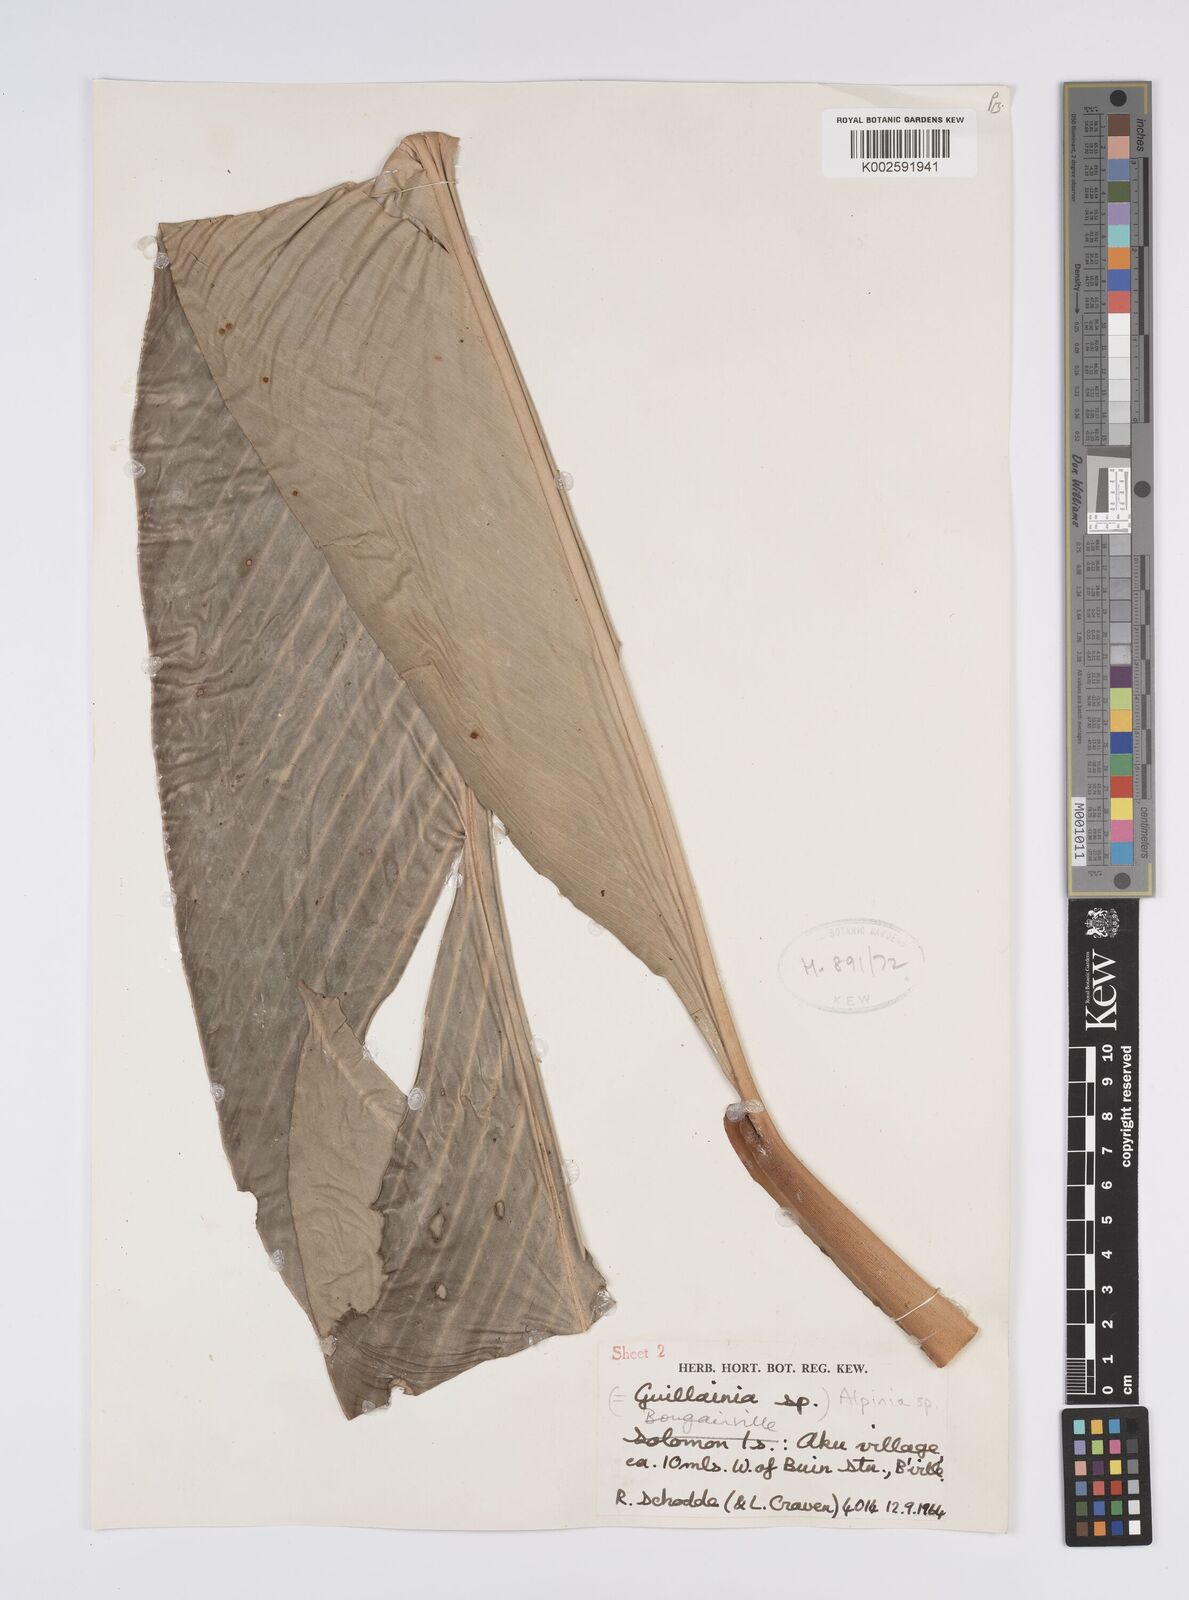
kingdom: Plantae
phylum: Tracheophyta
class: Liliopsida
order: Zingiberales
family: Zingiberaceae
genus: Alpinia
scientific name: Alpinia
